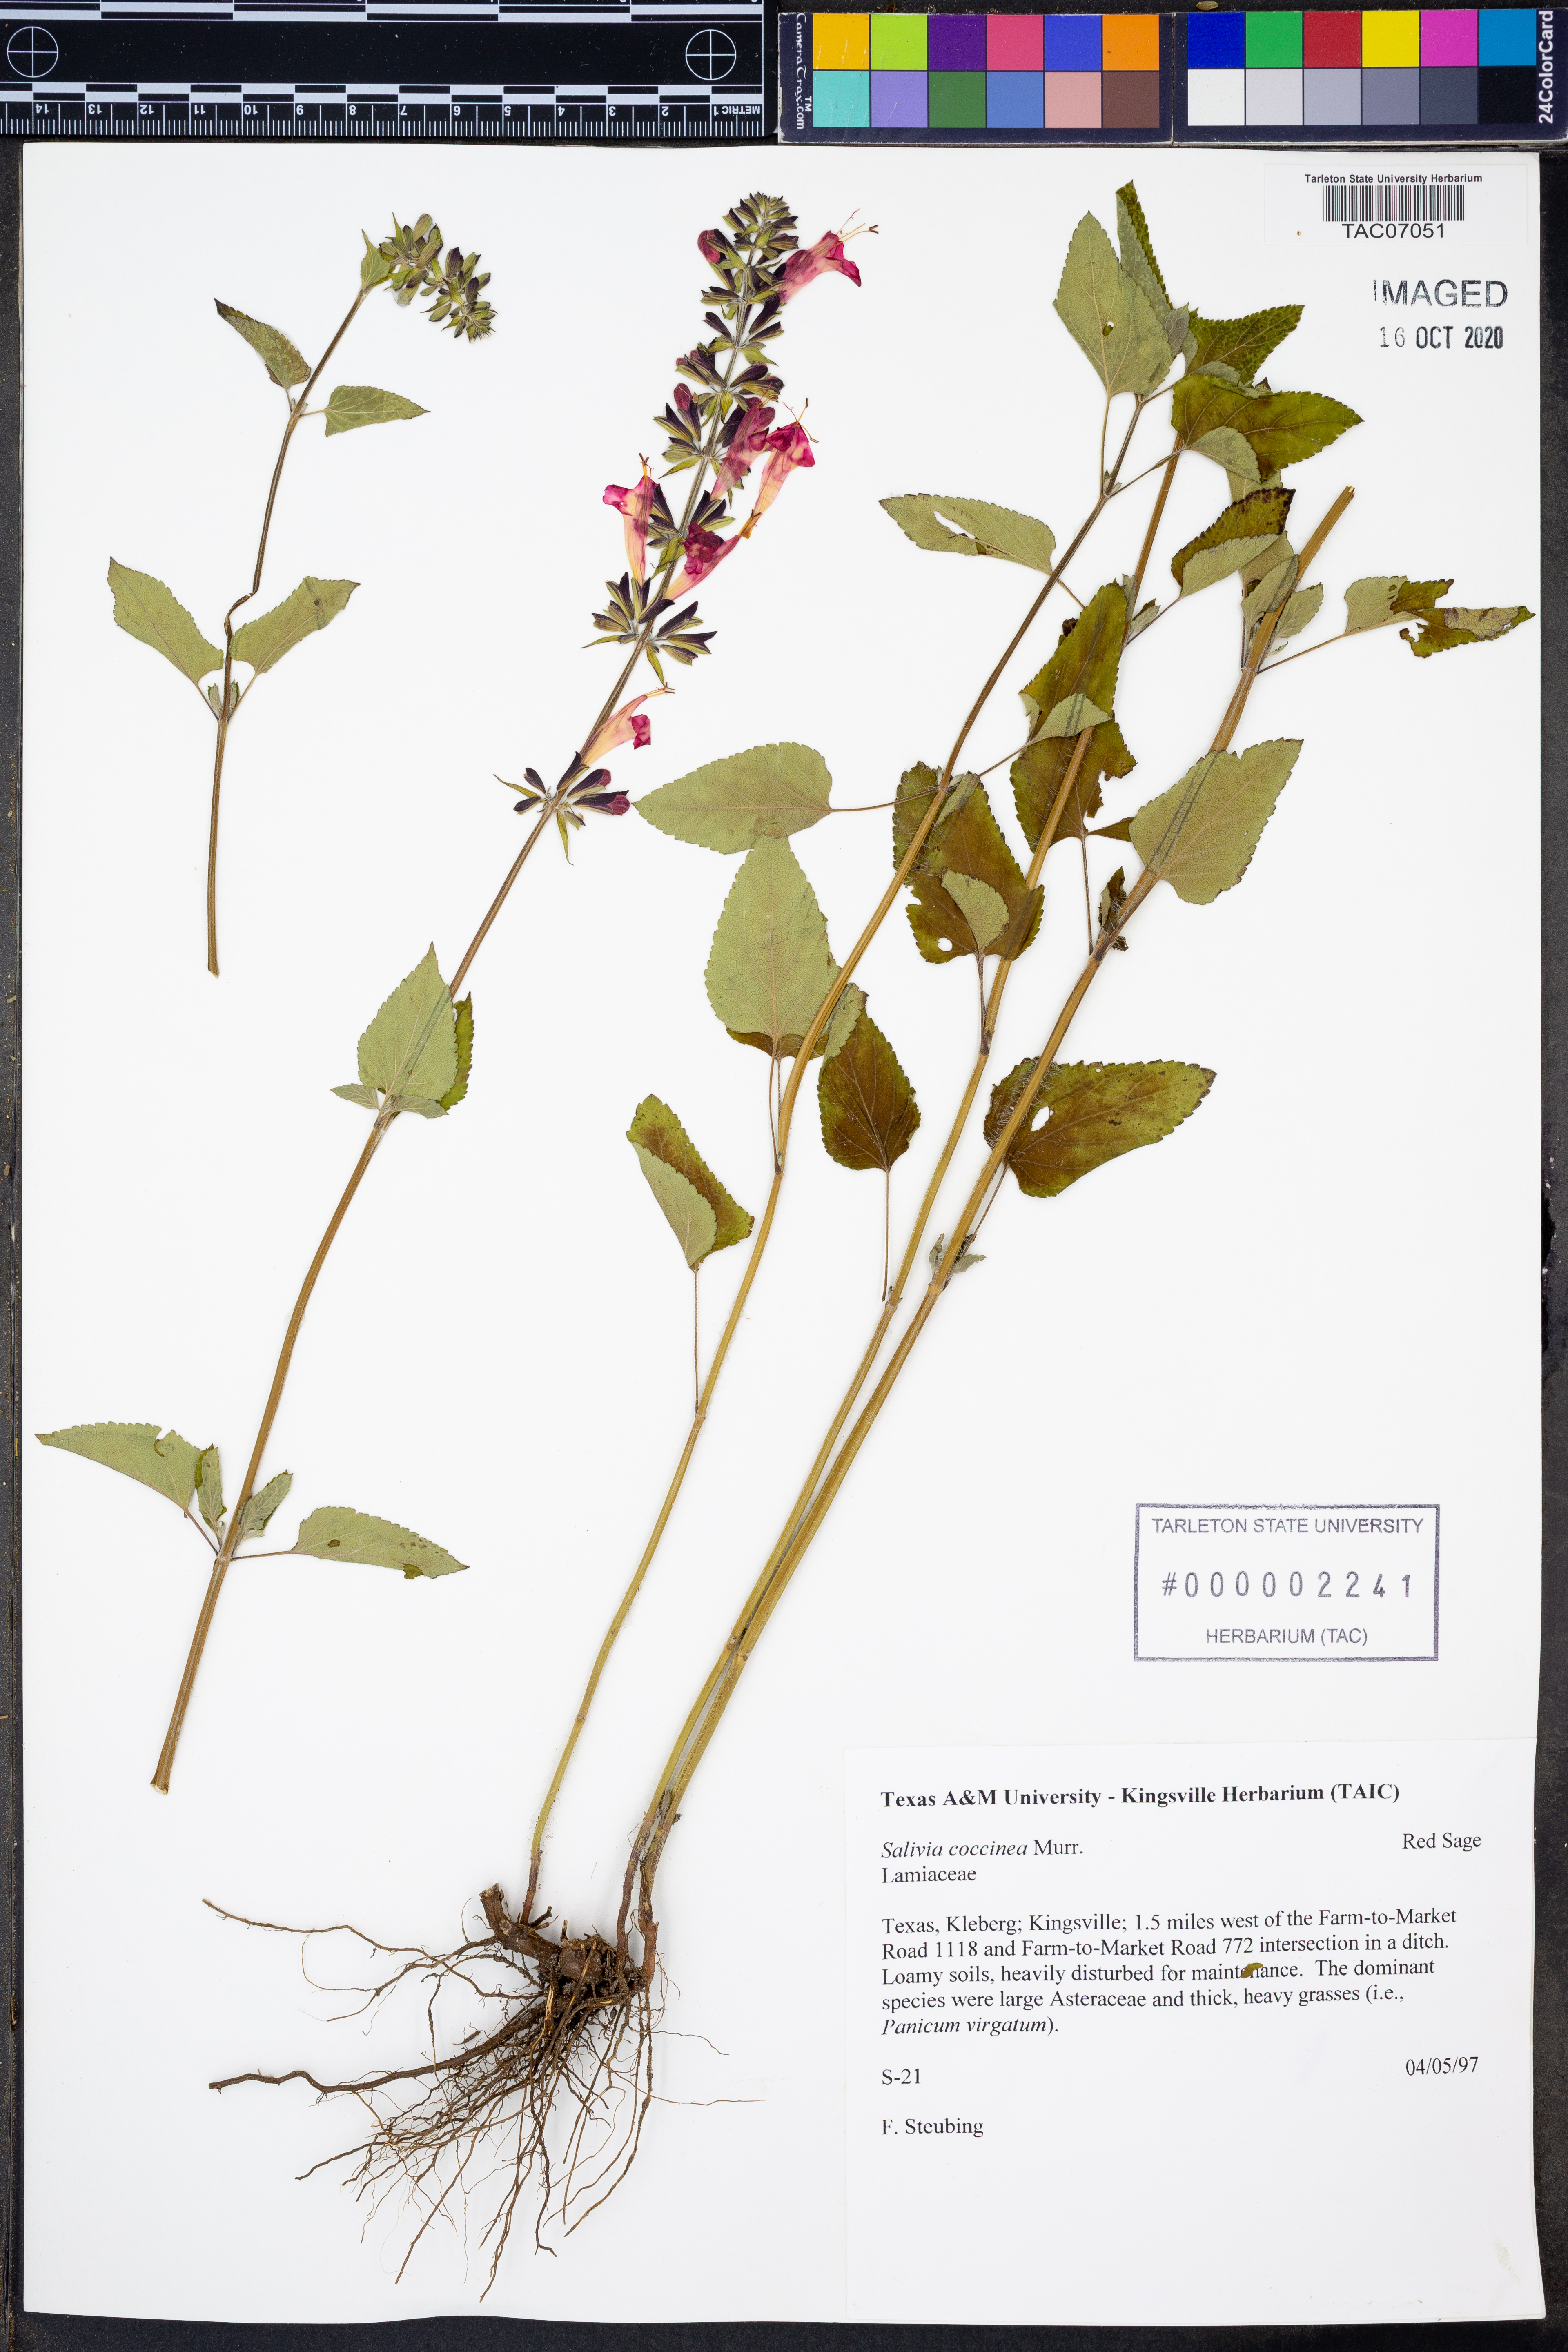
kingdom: Plantae
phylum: Tracheophyta
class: Magnoliopsida
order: Lamiales
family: Lamiaceae
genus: Salvia
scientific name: Salvia coccinea
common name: Blood sage
